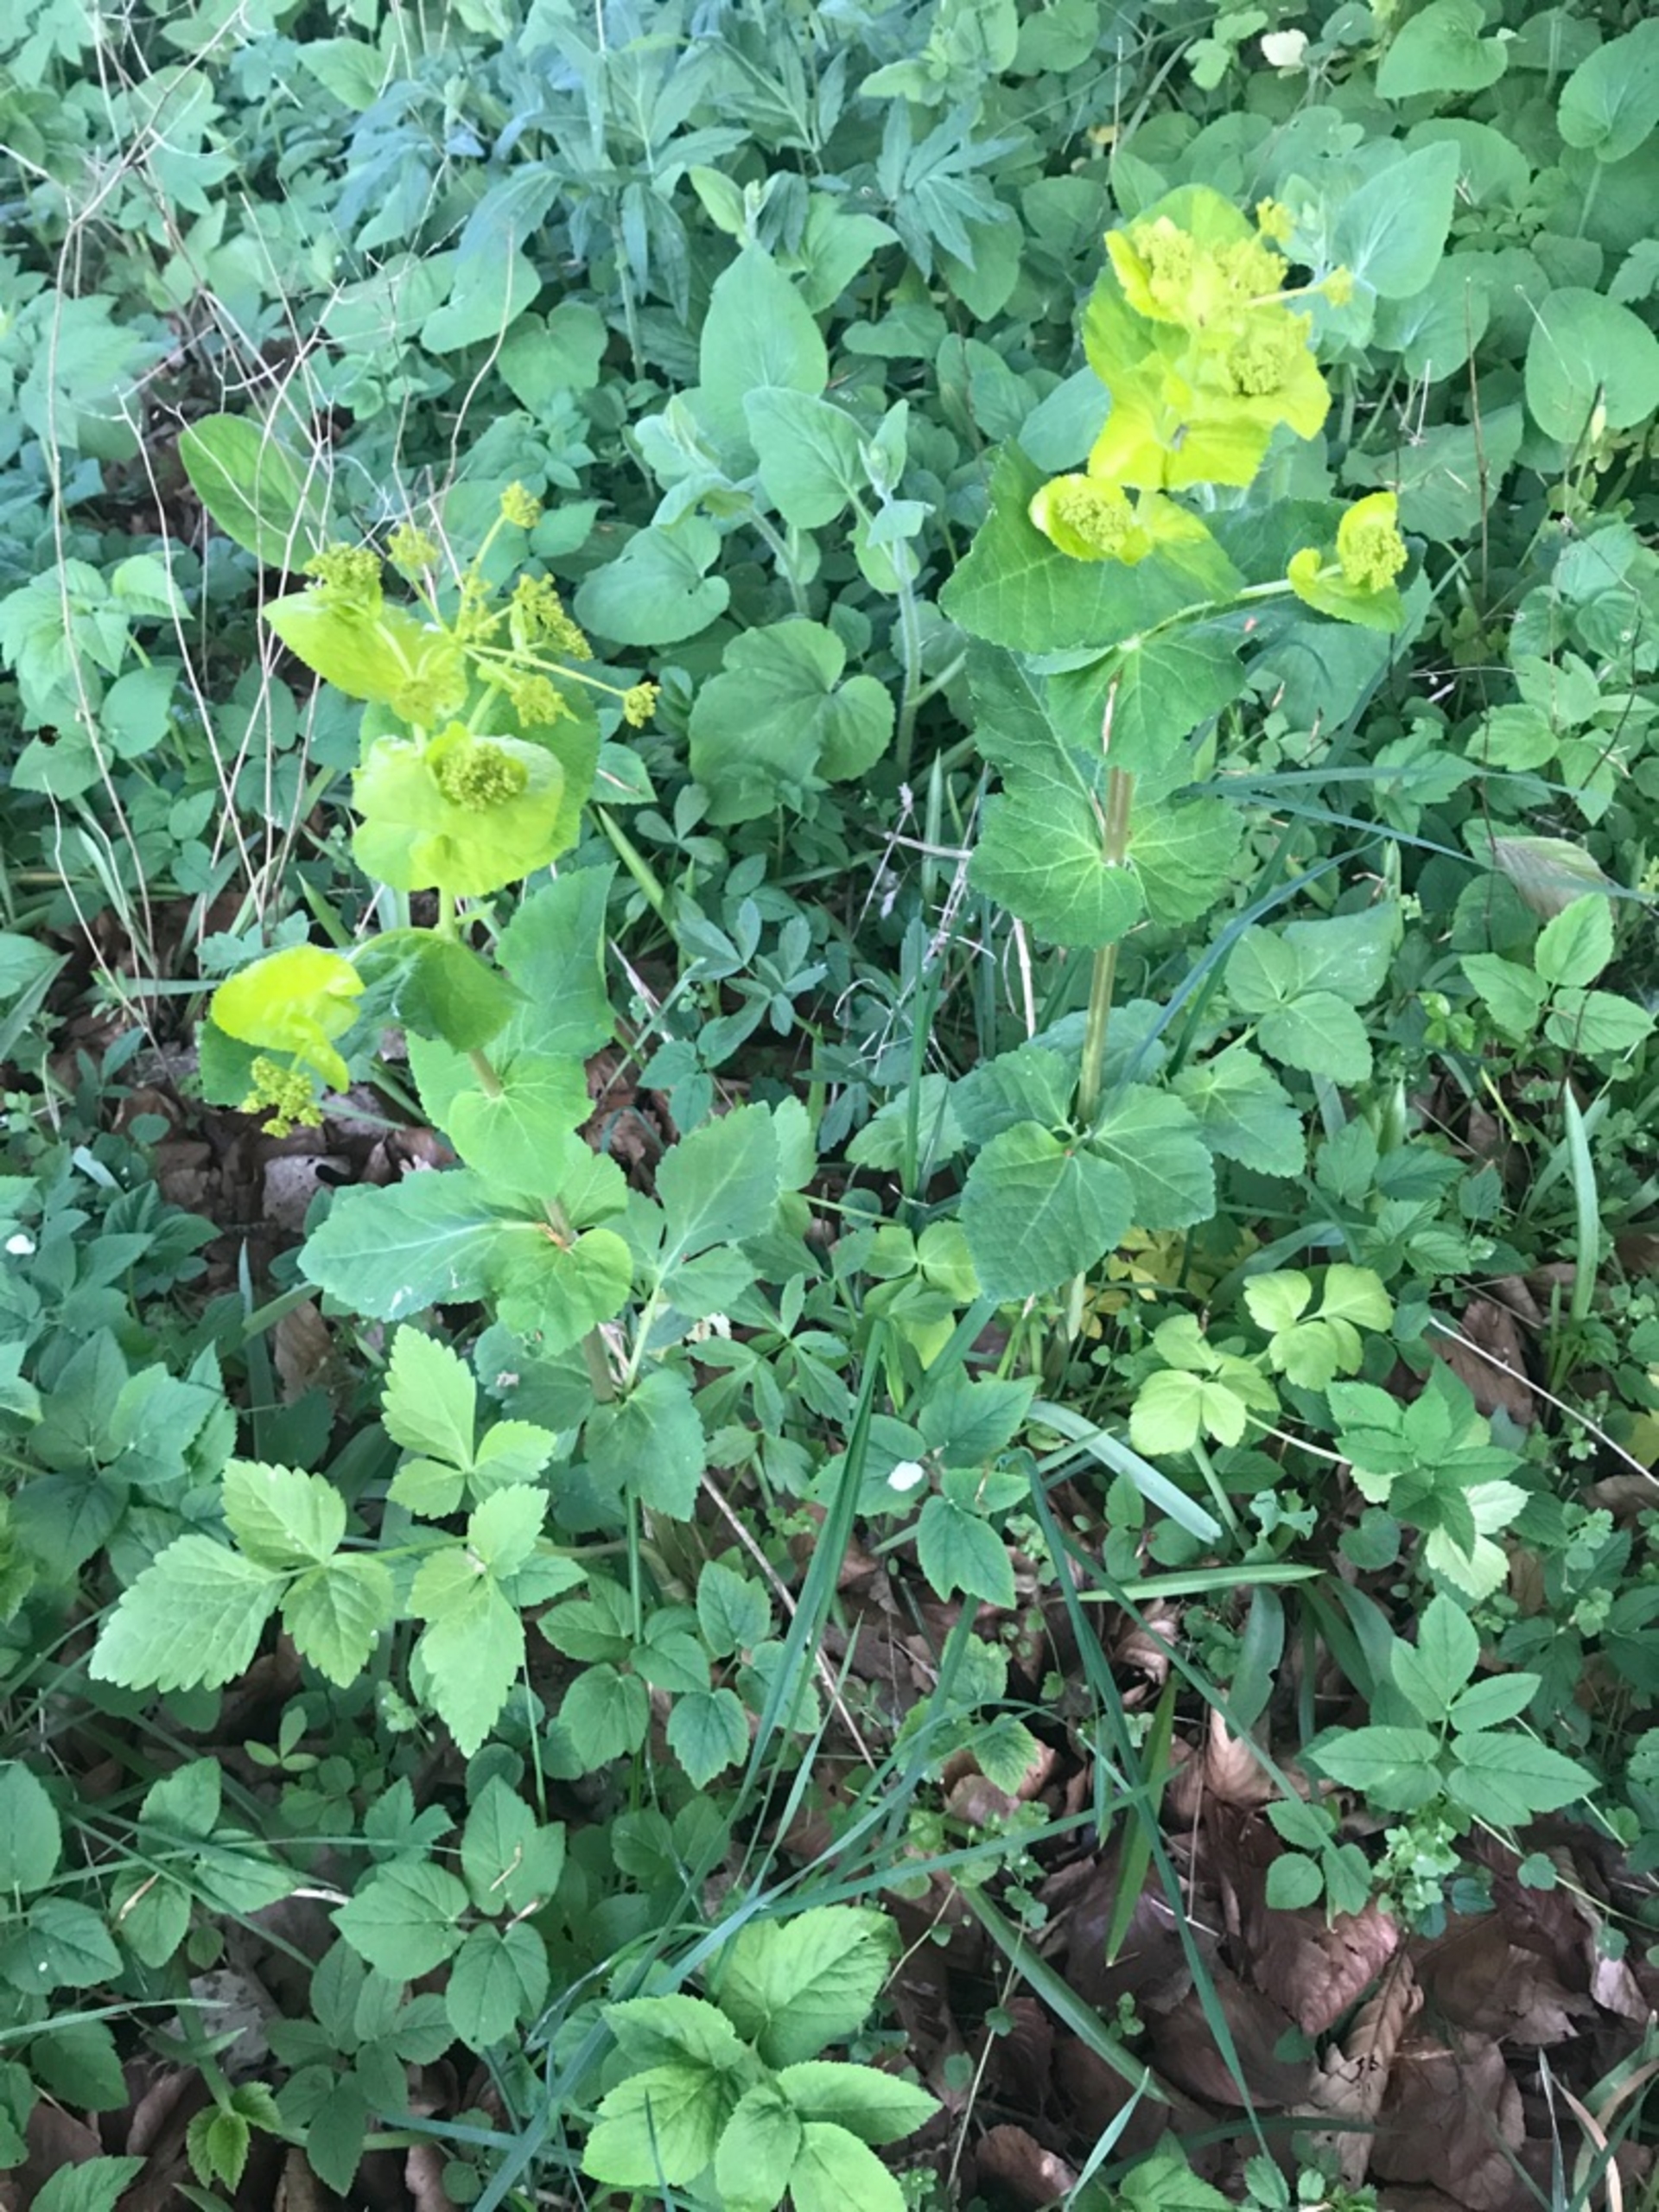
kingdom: Plantae
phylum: Tracheophyta
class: Magnoliopsida
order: Apiales
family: Apiaceae
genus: Smyrnium
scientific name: Smyrnium perfoliatum
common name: Lundgylden
